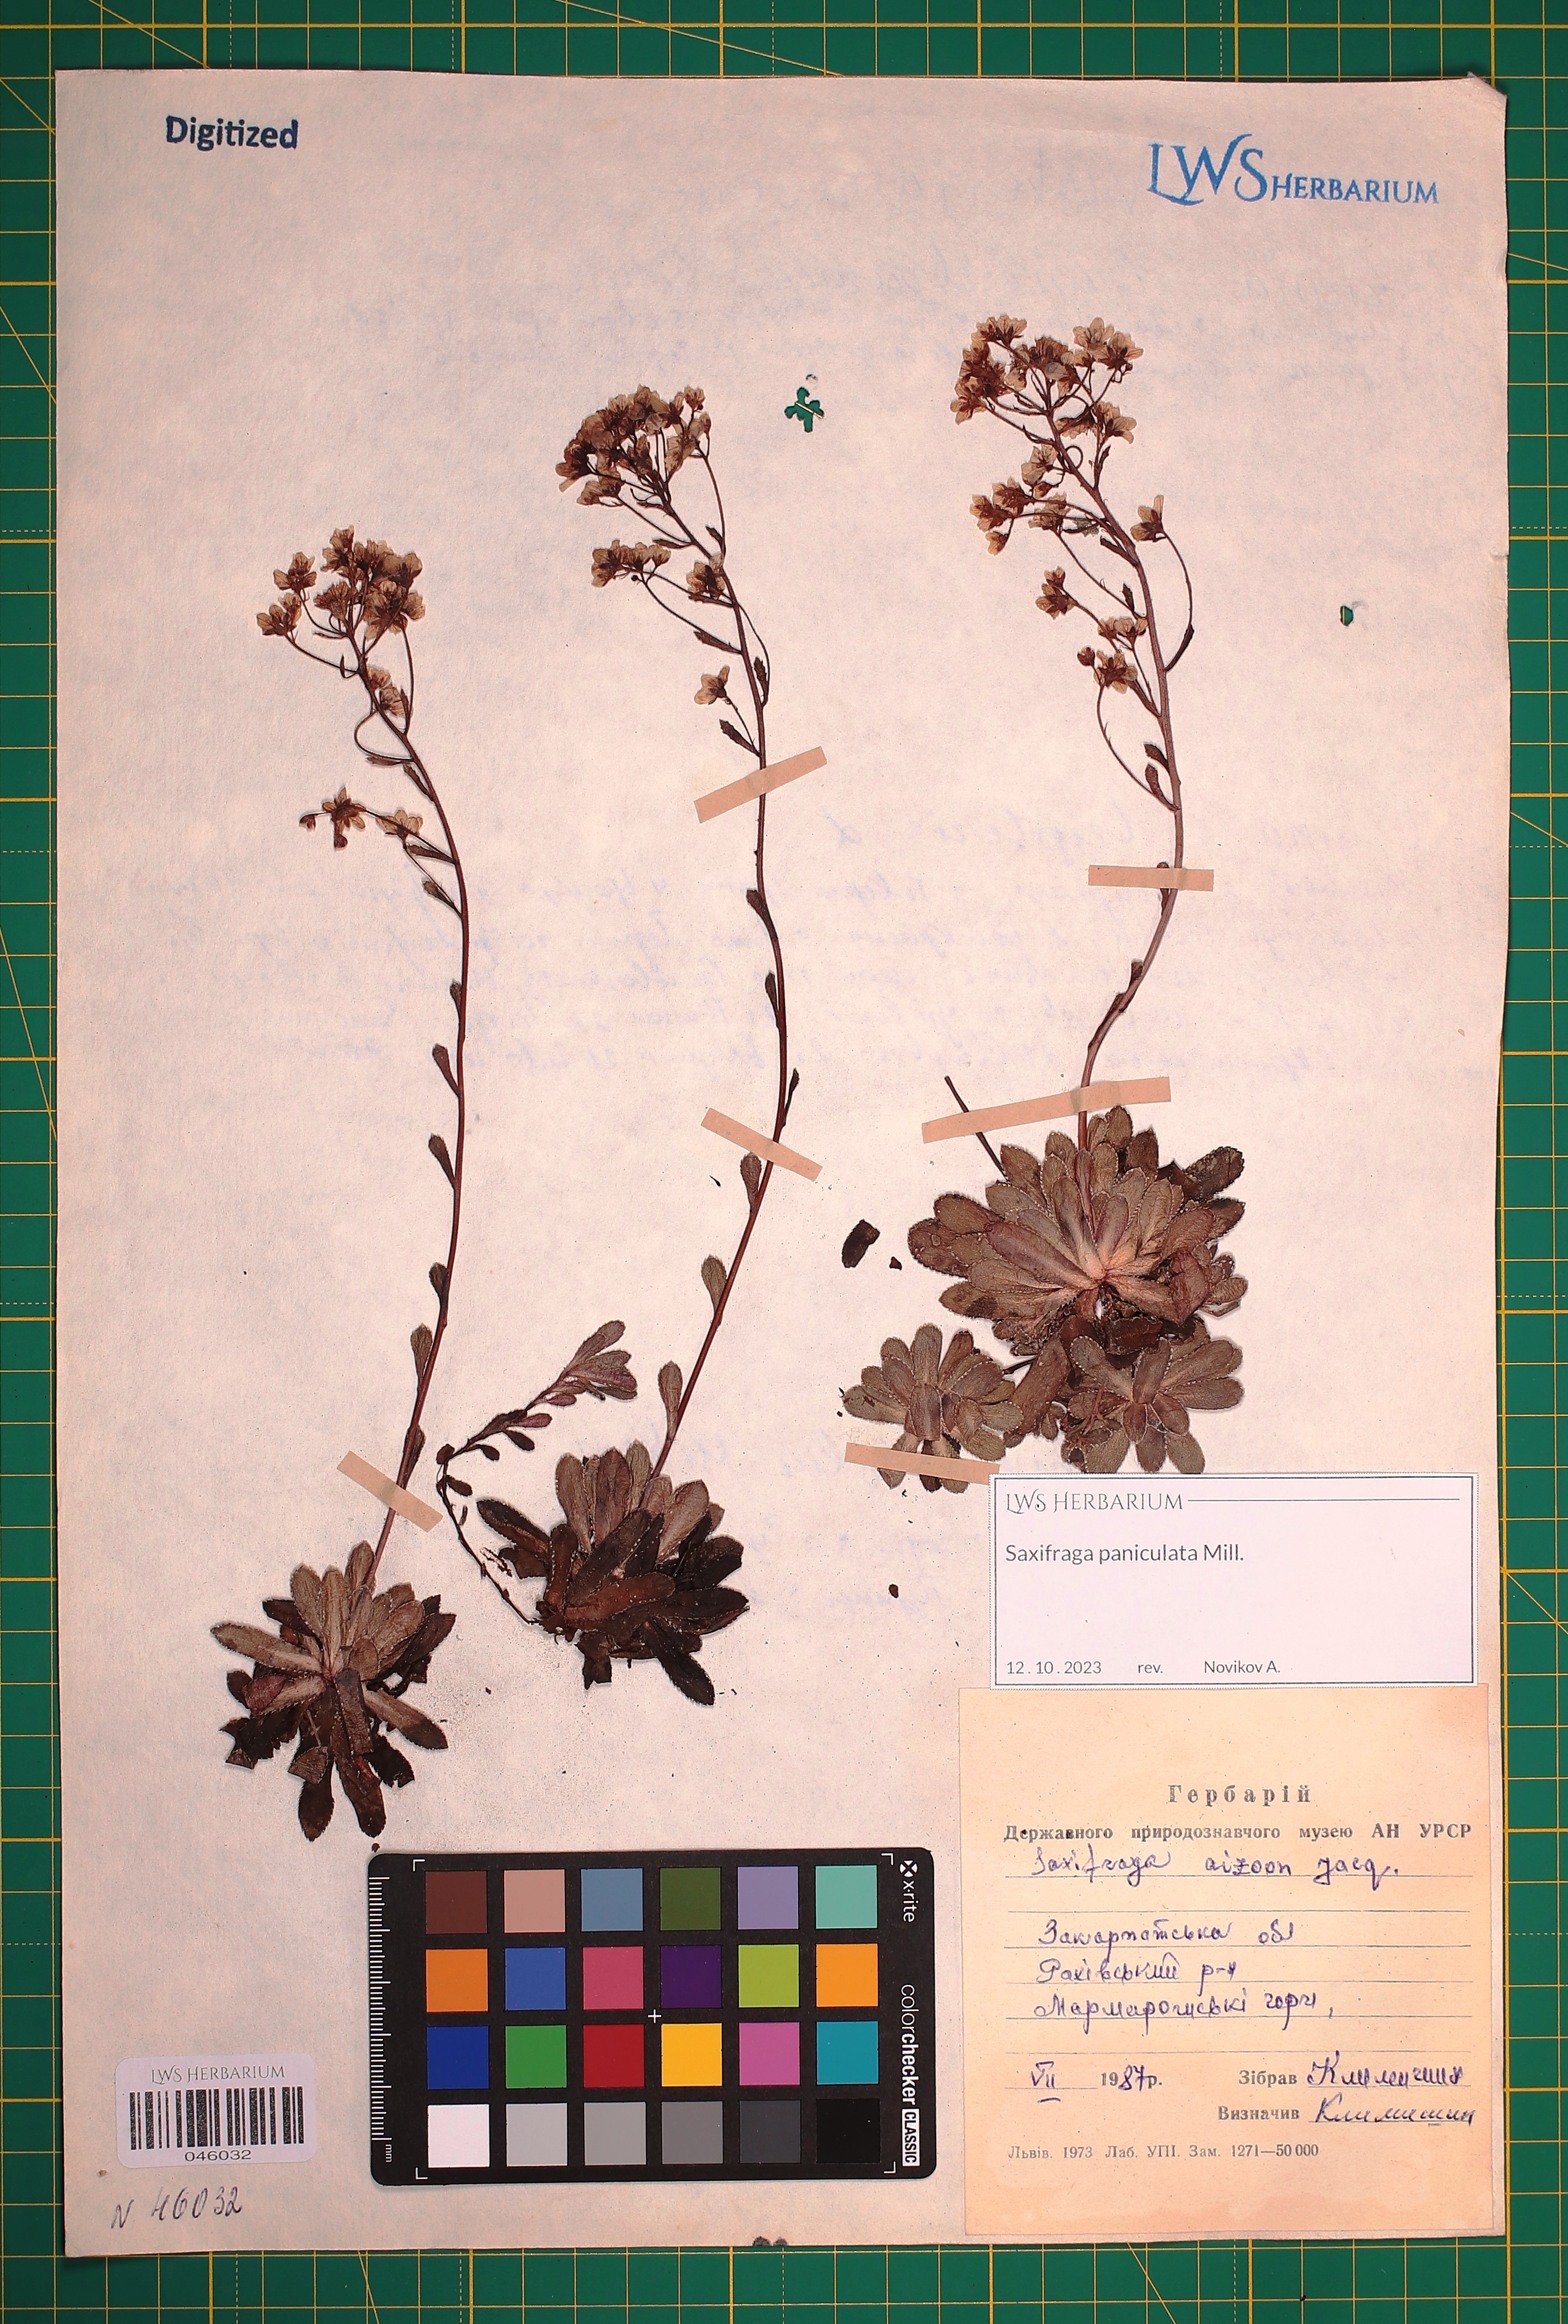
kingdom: Plantae
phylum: Tracheophyta
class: Magnoliopsida
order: Saxifragales
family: Saxifragaceae
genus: Saxifraga
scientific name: Saxifraga paniculata
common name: Livelong saxifrage
